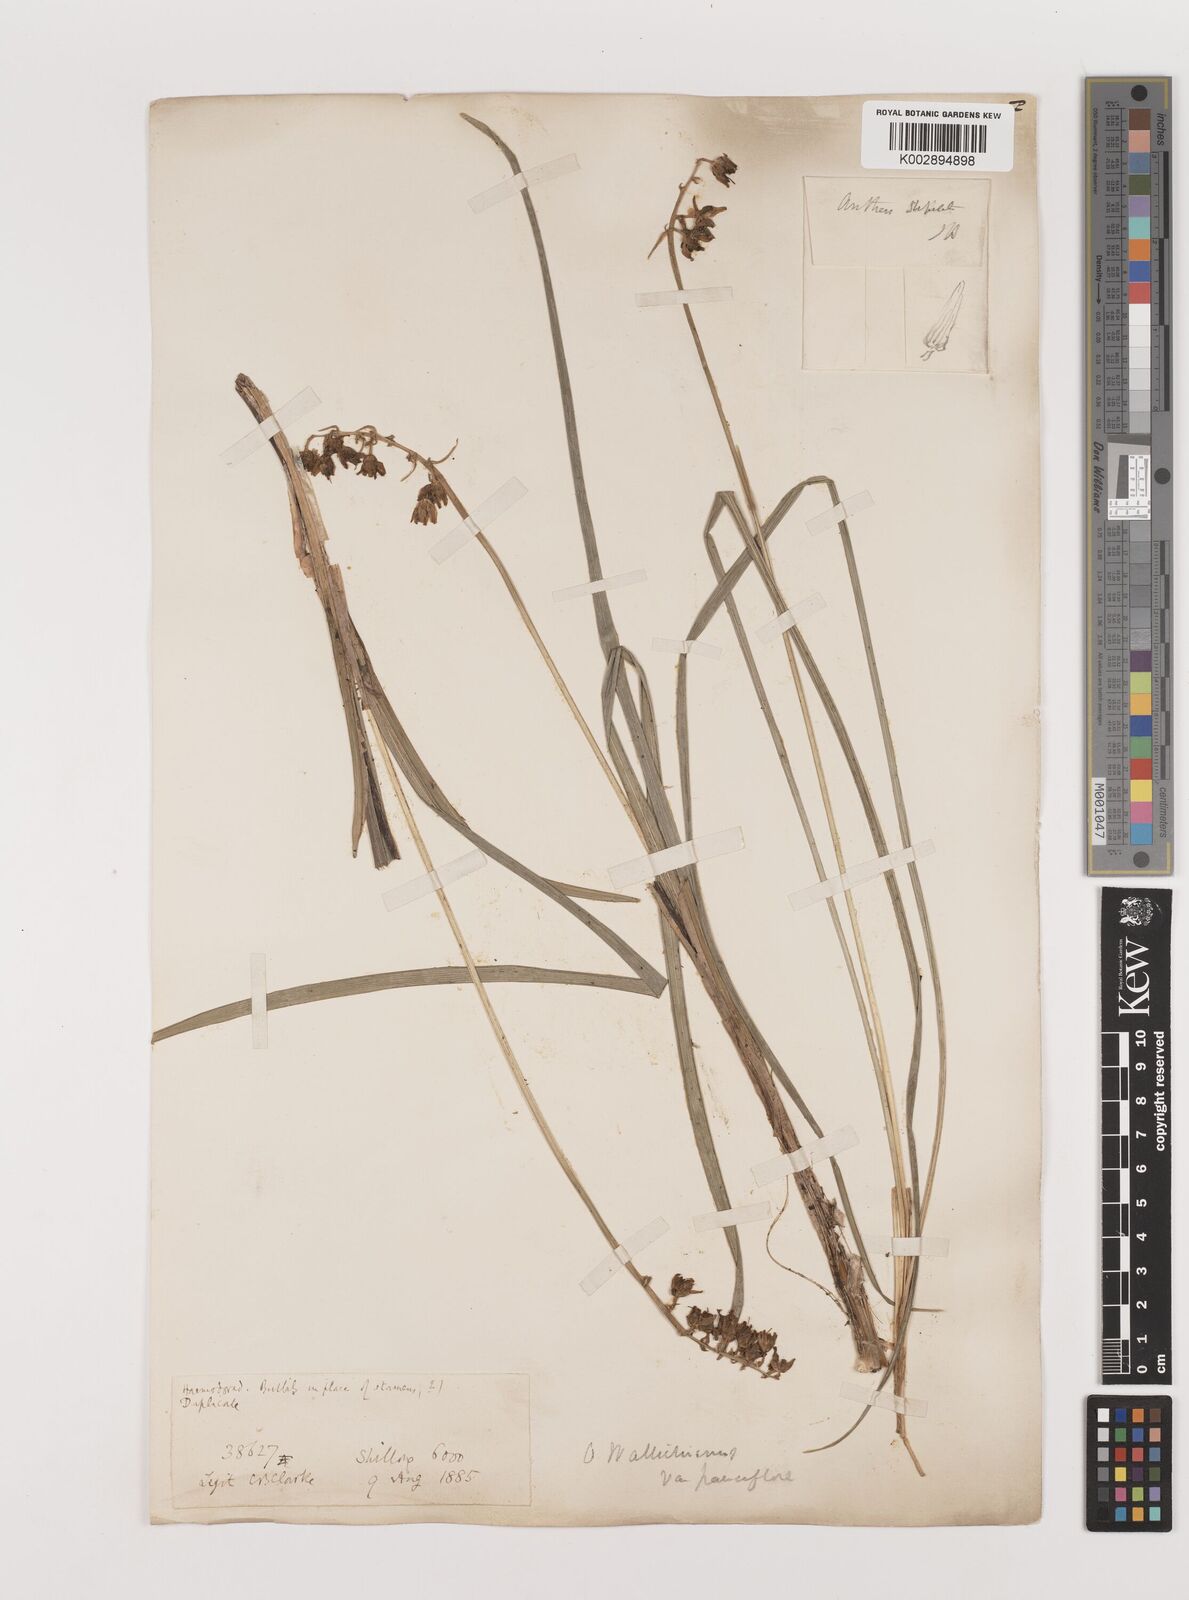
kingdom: Plantae
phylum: Tracheophyta
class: Liliopsida
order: Asparagales
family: Asparagaceae
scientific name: Asparagaceae
